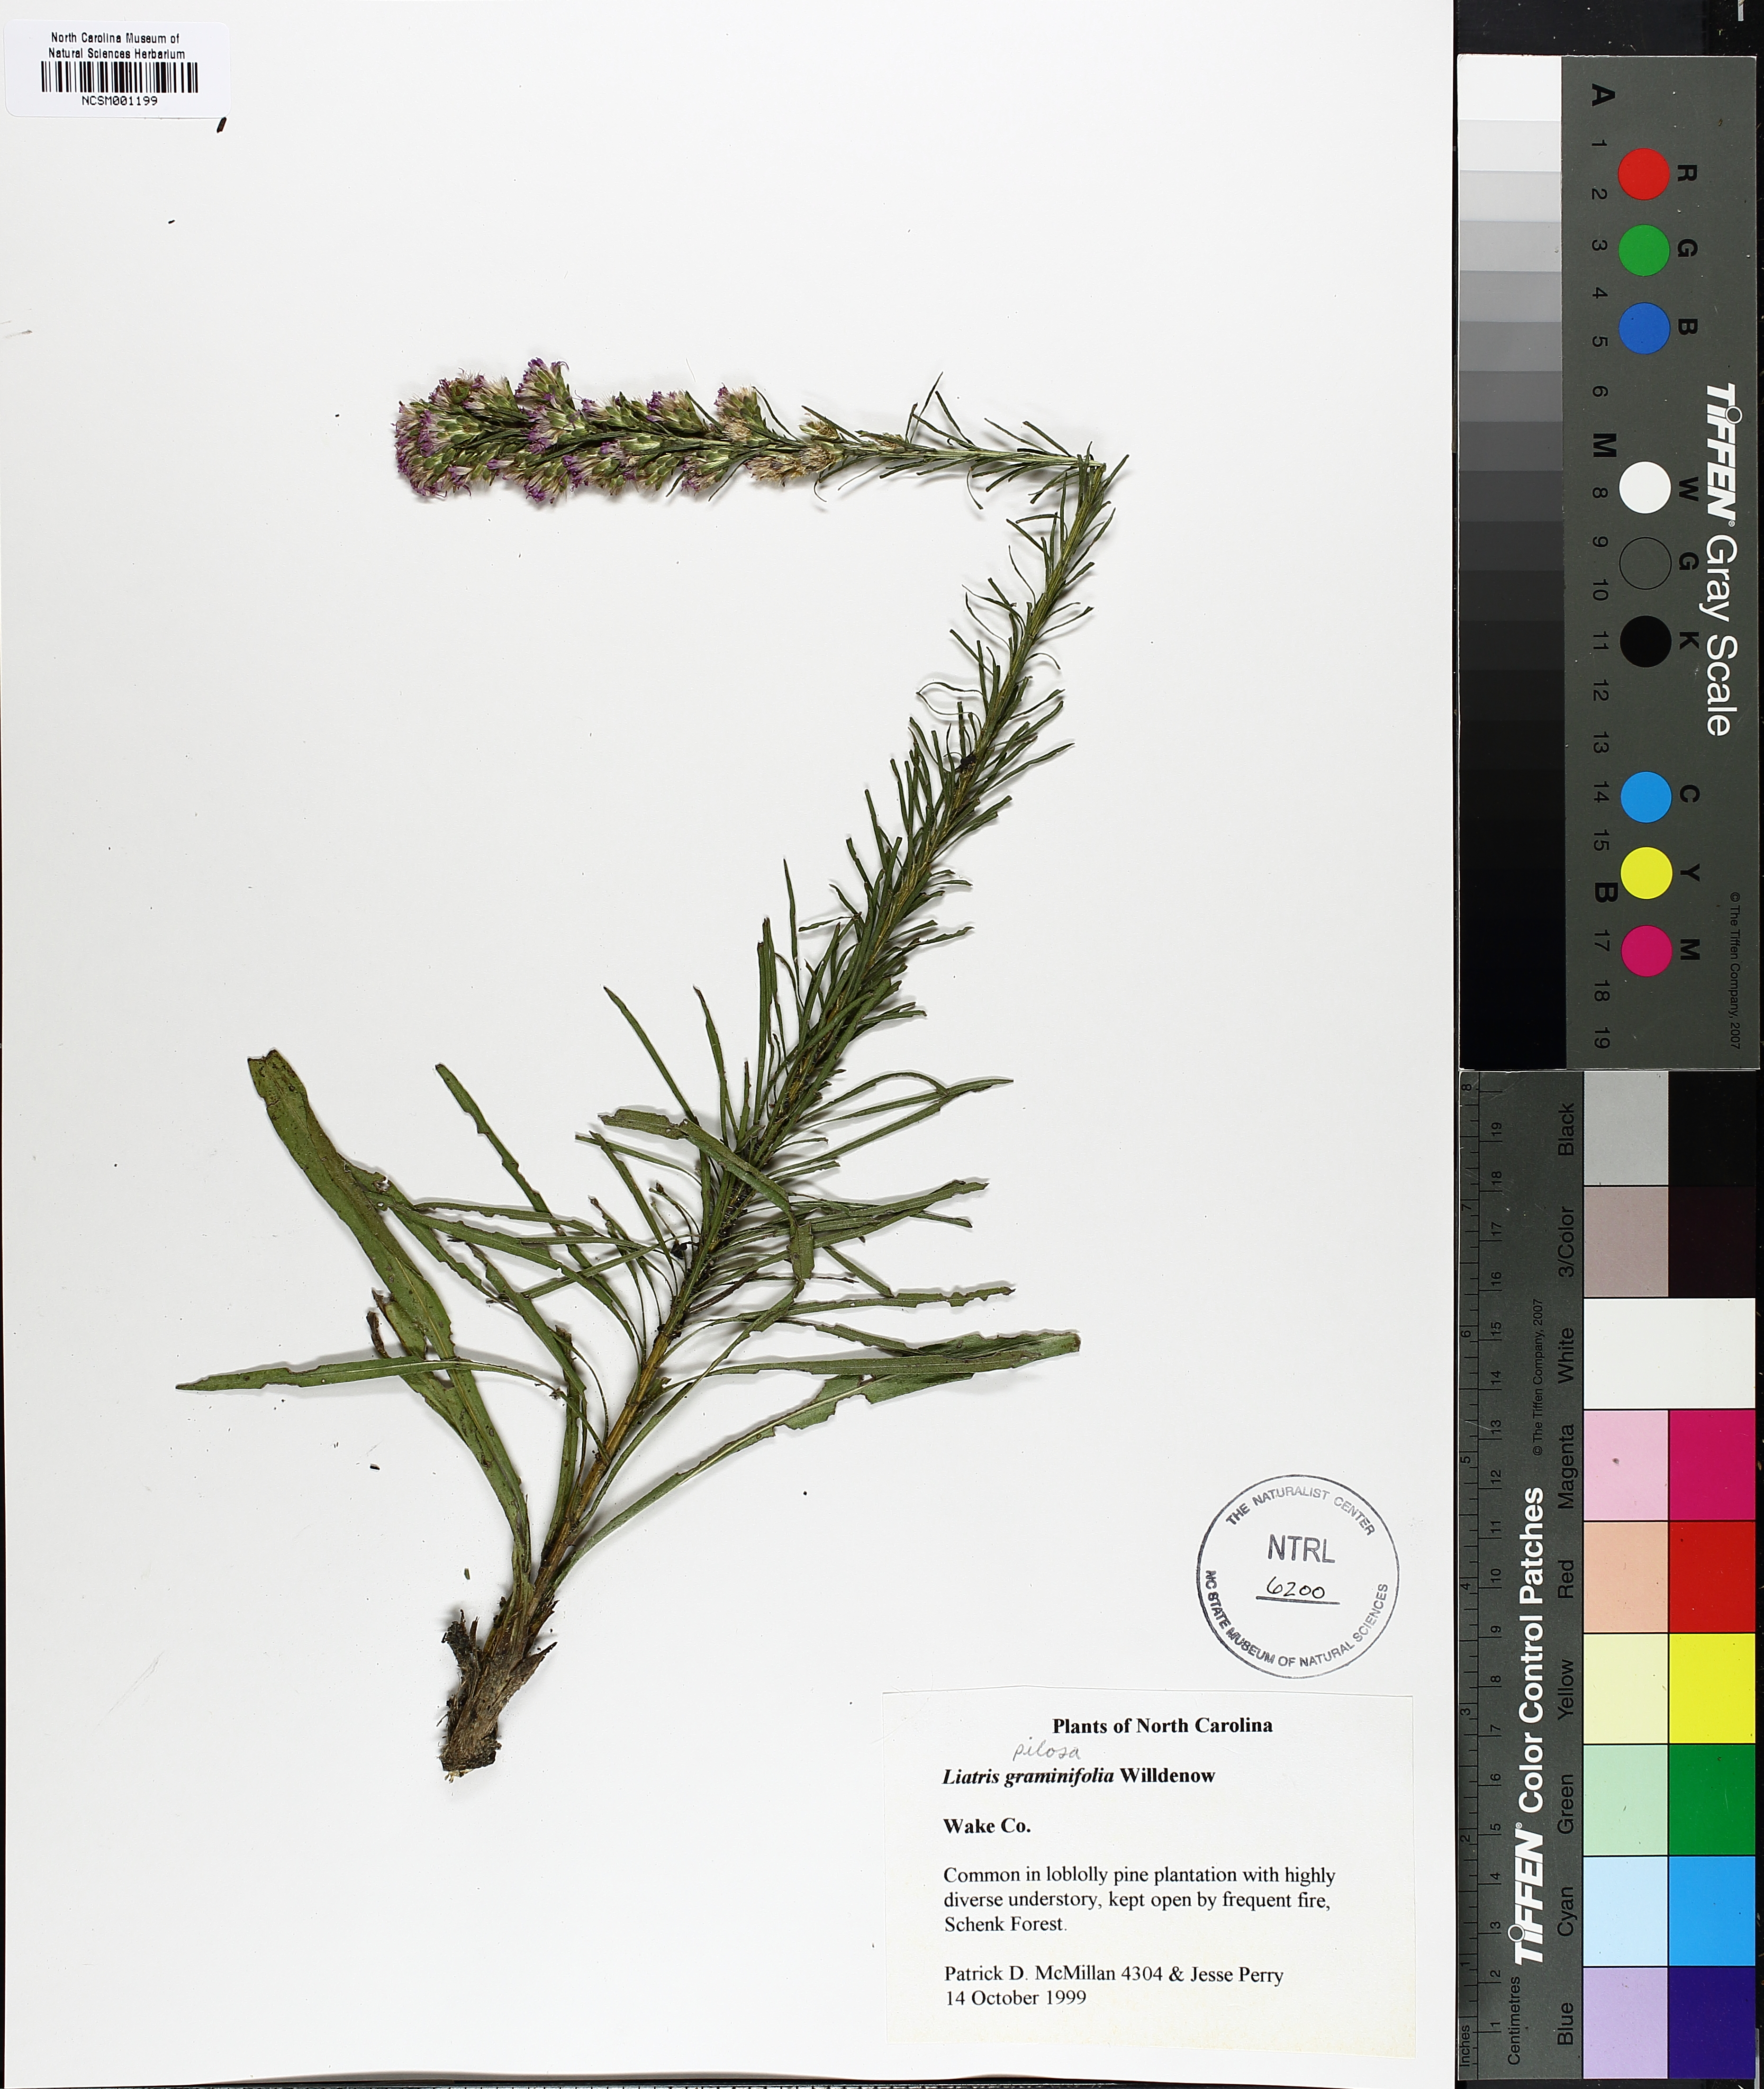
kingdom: Plantae
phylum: Tracheophyta
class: Magnoliopsida
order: Asterales
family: Asteraceae
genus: Liatris
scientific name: Liatris pilosa
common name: Grass-leaf gayfeather
